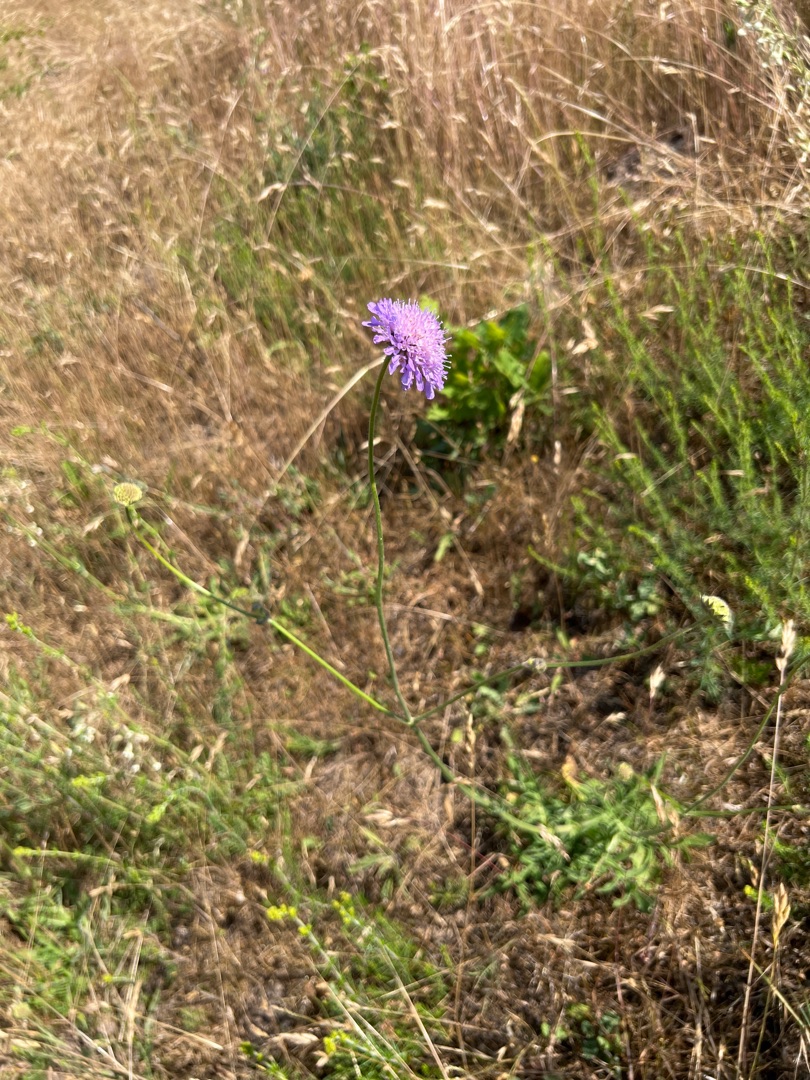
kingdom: Plantae
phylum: Tracheophyta
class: Magnoliopsida
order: Dipsacales
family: Caprifoliaceae
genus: Knautia
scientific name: Knautia arvensis
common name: Blåhat
